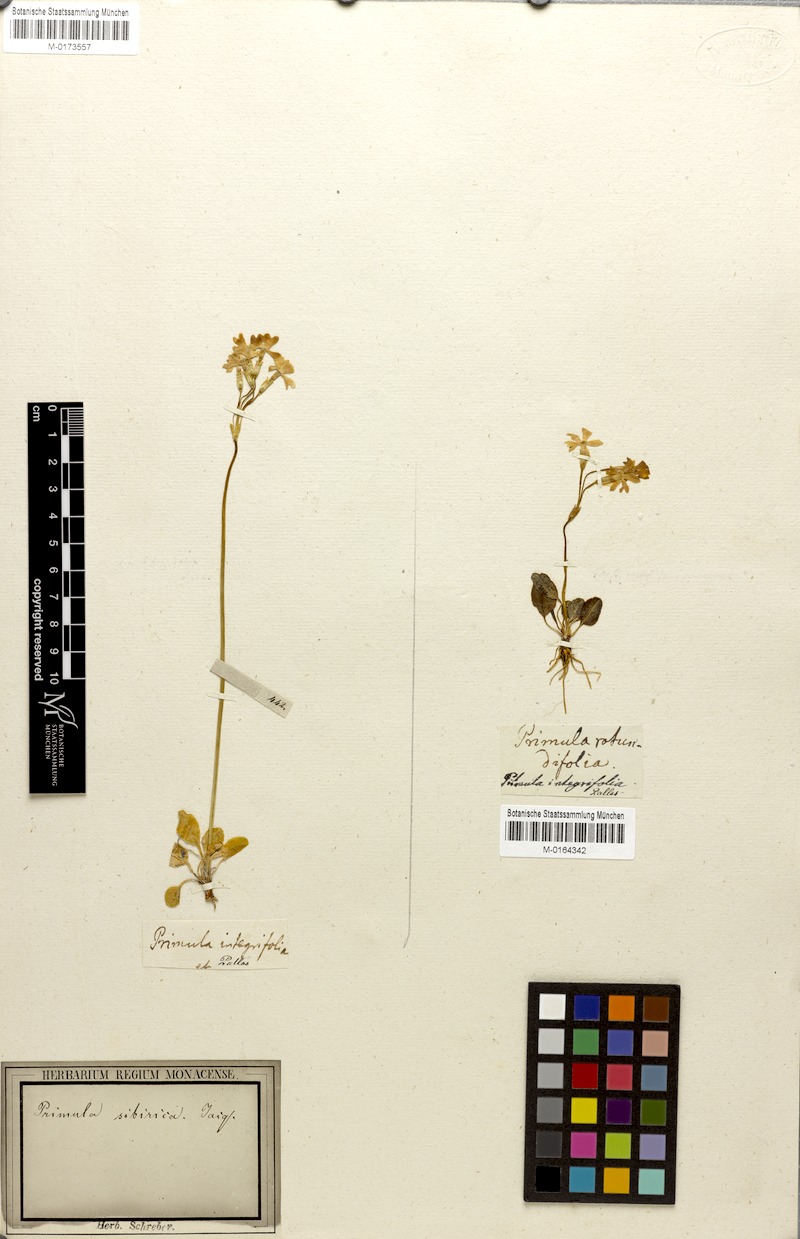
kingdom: Plantae
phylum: Tracheophyta
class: Magnoliopsida
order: Ericales
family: Primulaceae
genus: Primula
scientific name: Primula nutans
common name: Siberian primrose
